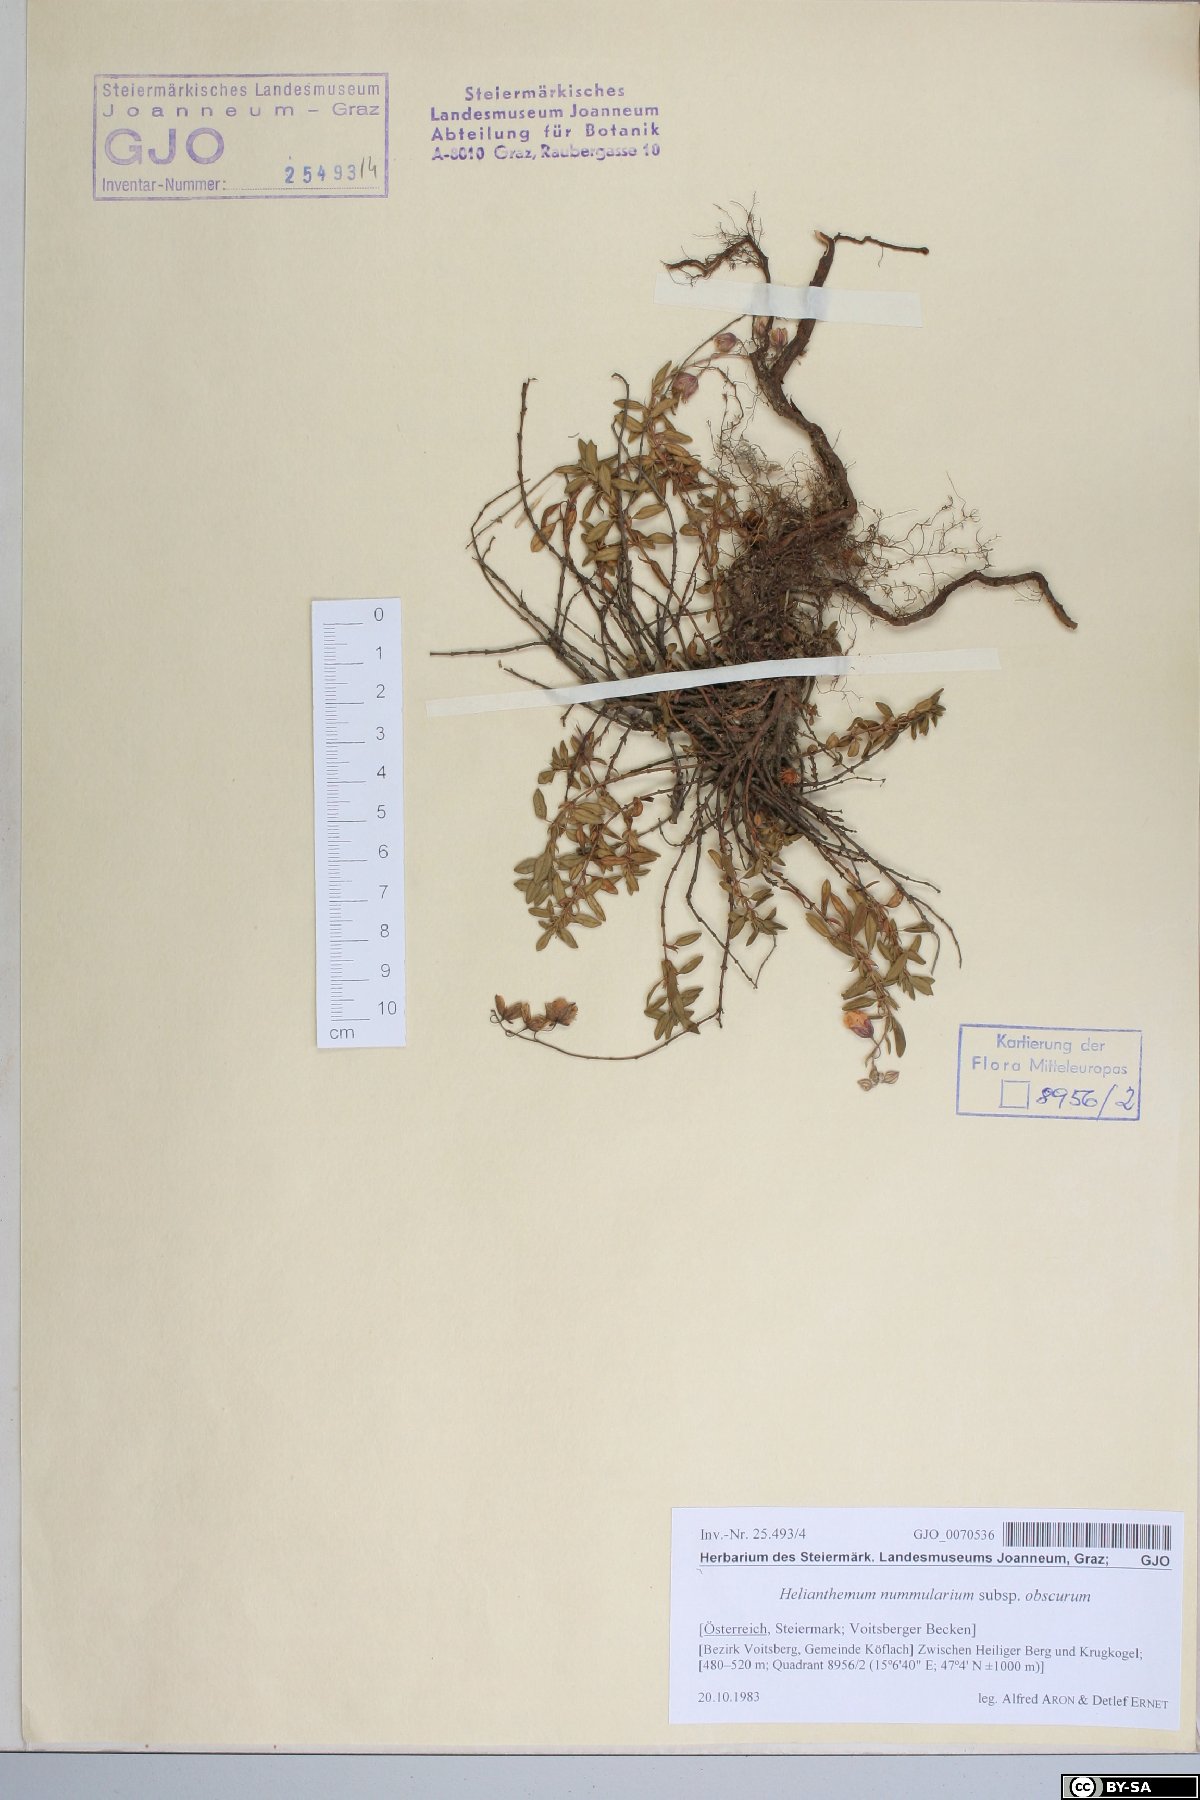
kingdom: Plantae
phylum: Tracheophyta
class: Magnoliopsida
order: Malvales
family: Cistaceae
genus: Helianthemum
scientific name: Helianthemum nummularium
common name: Common rock-rose
